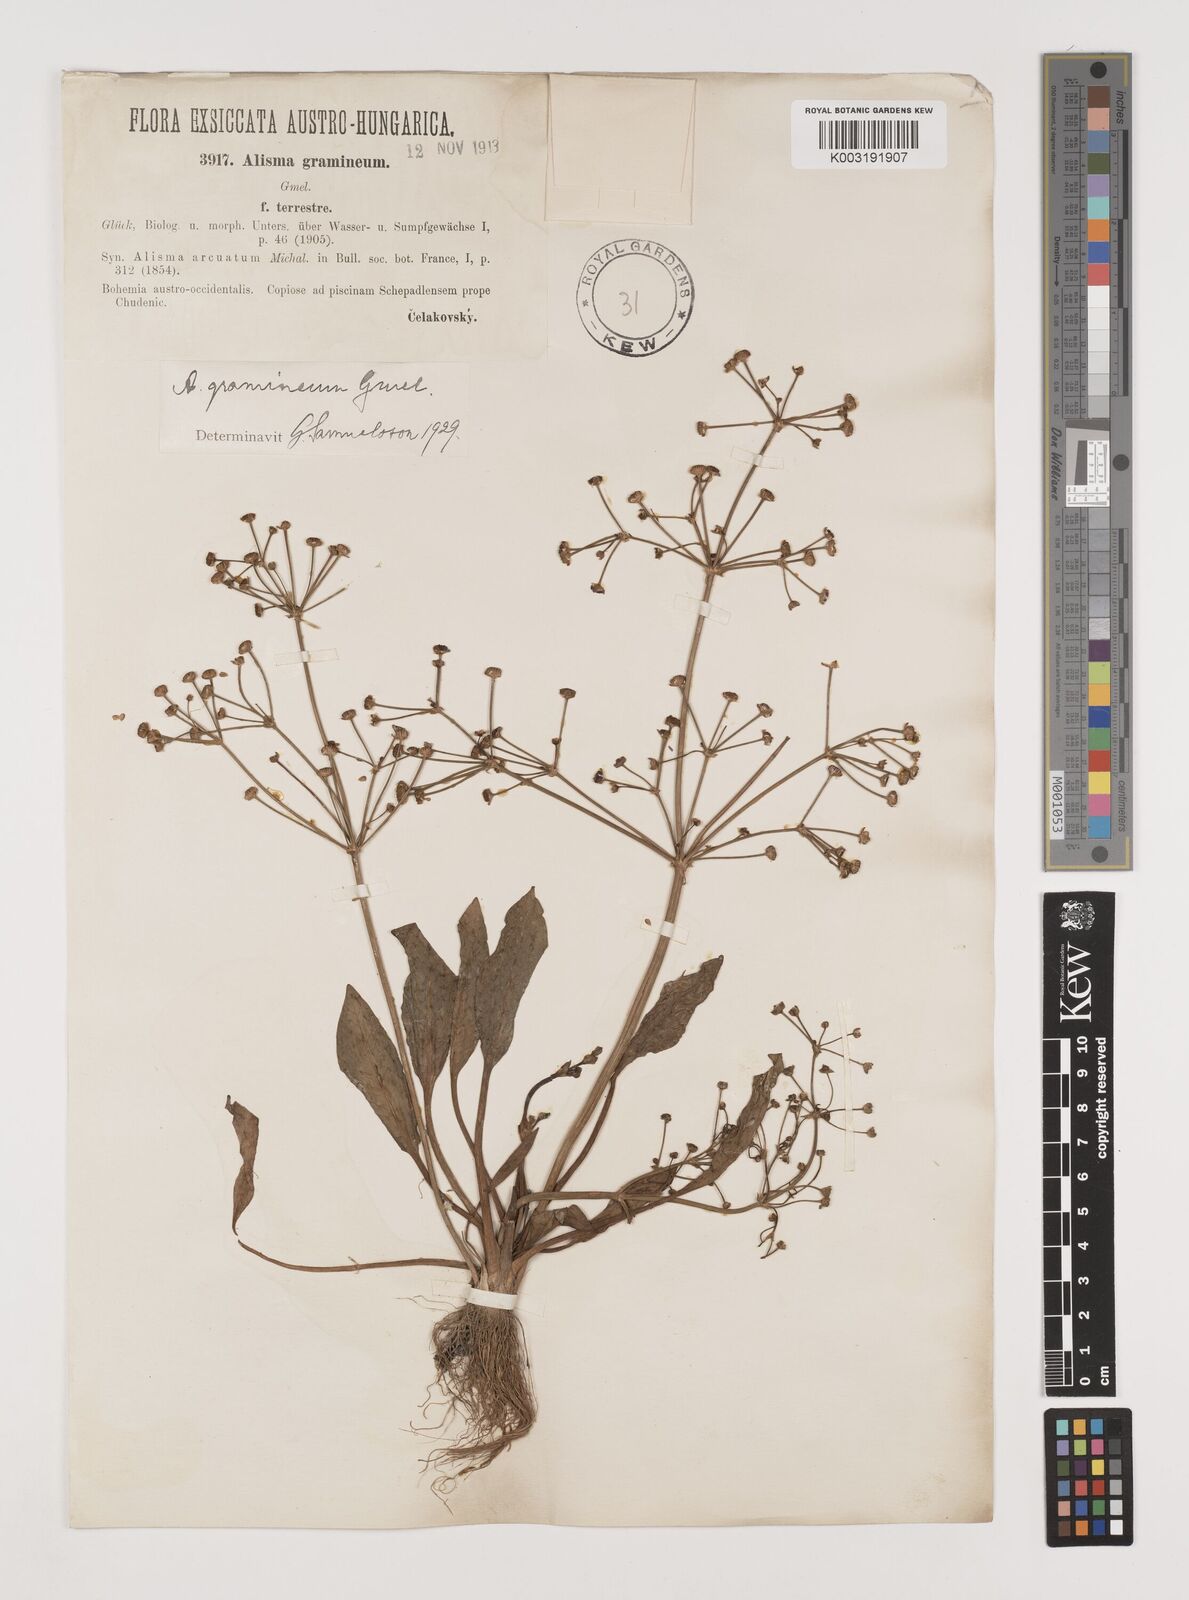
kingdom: Plantae
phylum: Tracheophyta
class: Liliopsida
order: Alismatales
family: Alismataceae
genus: Alisma
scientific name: Alisma gramineum
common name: Ribbon-leaved water-plantain
